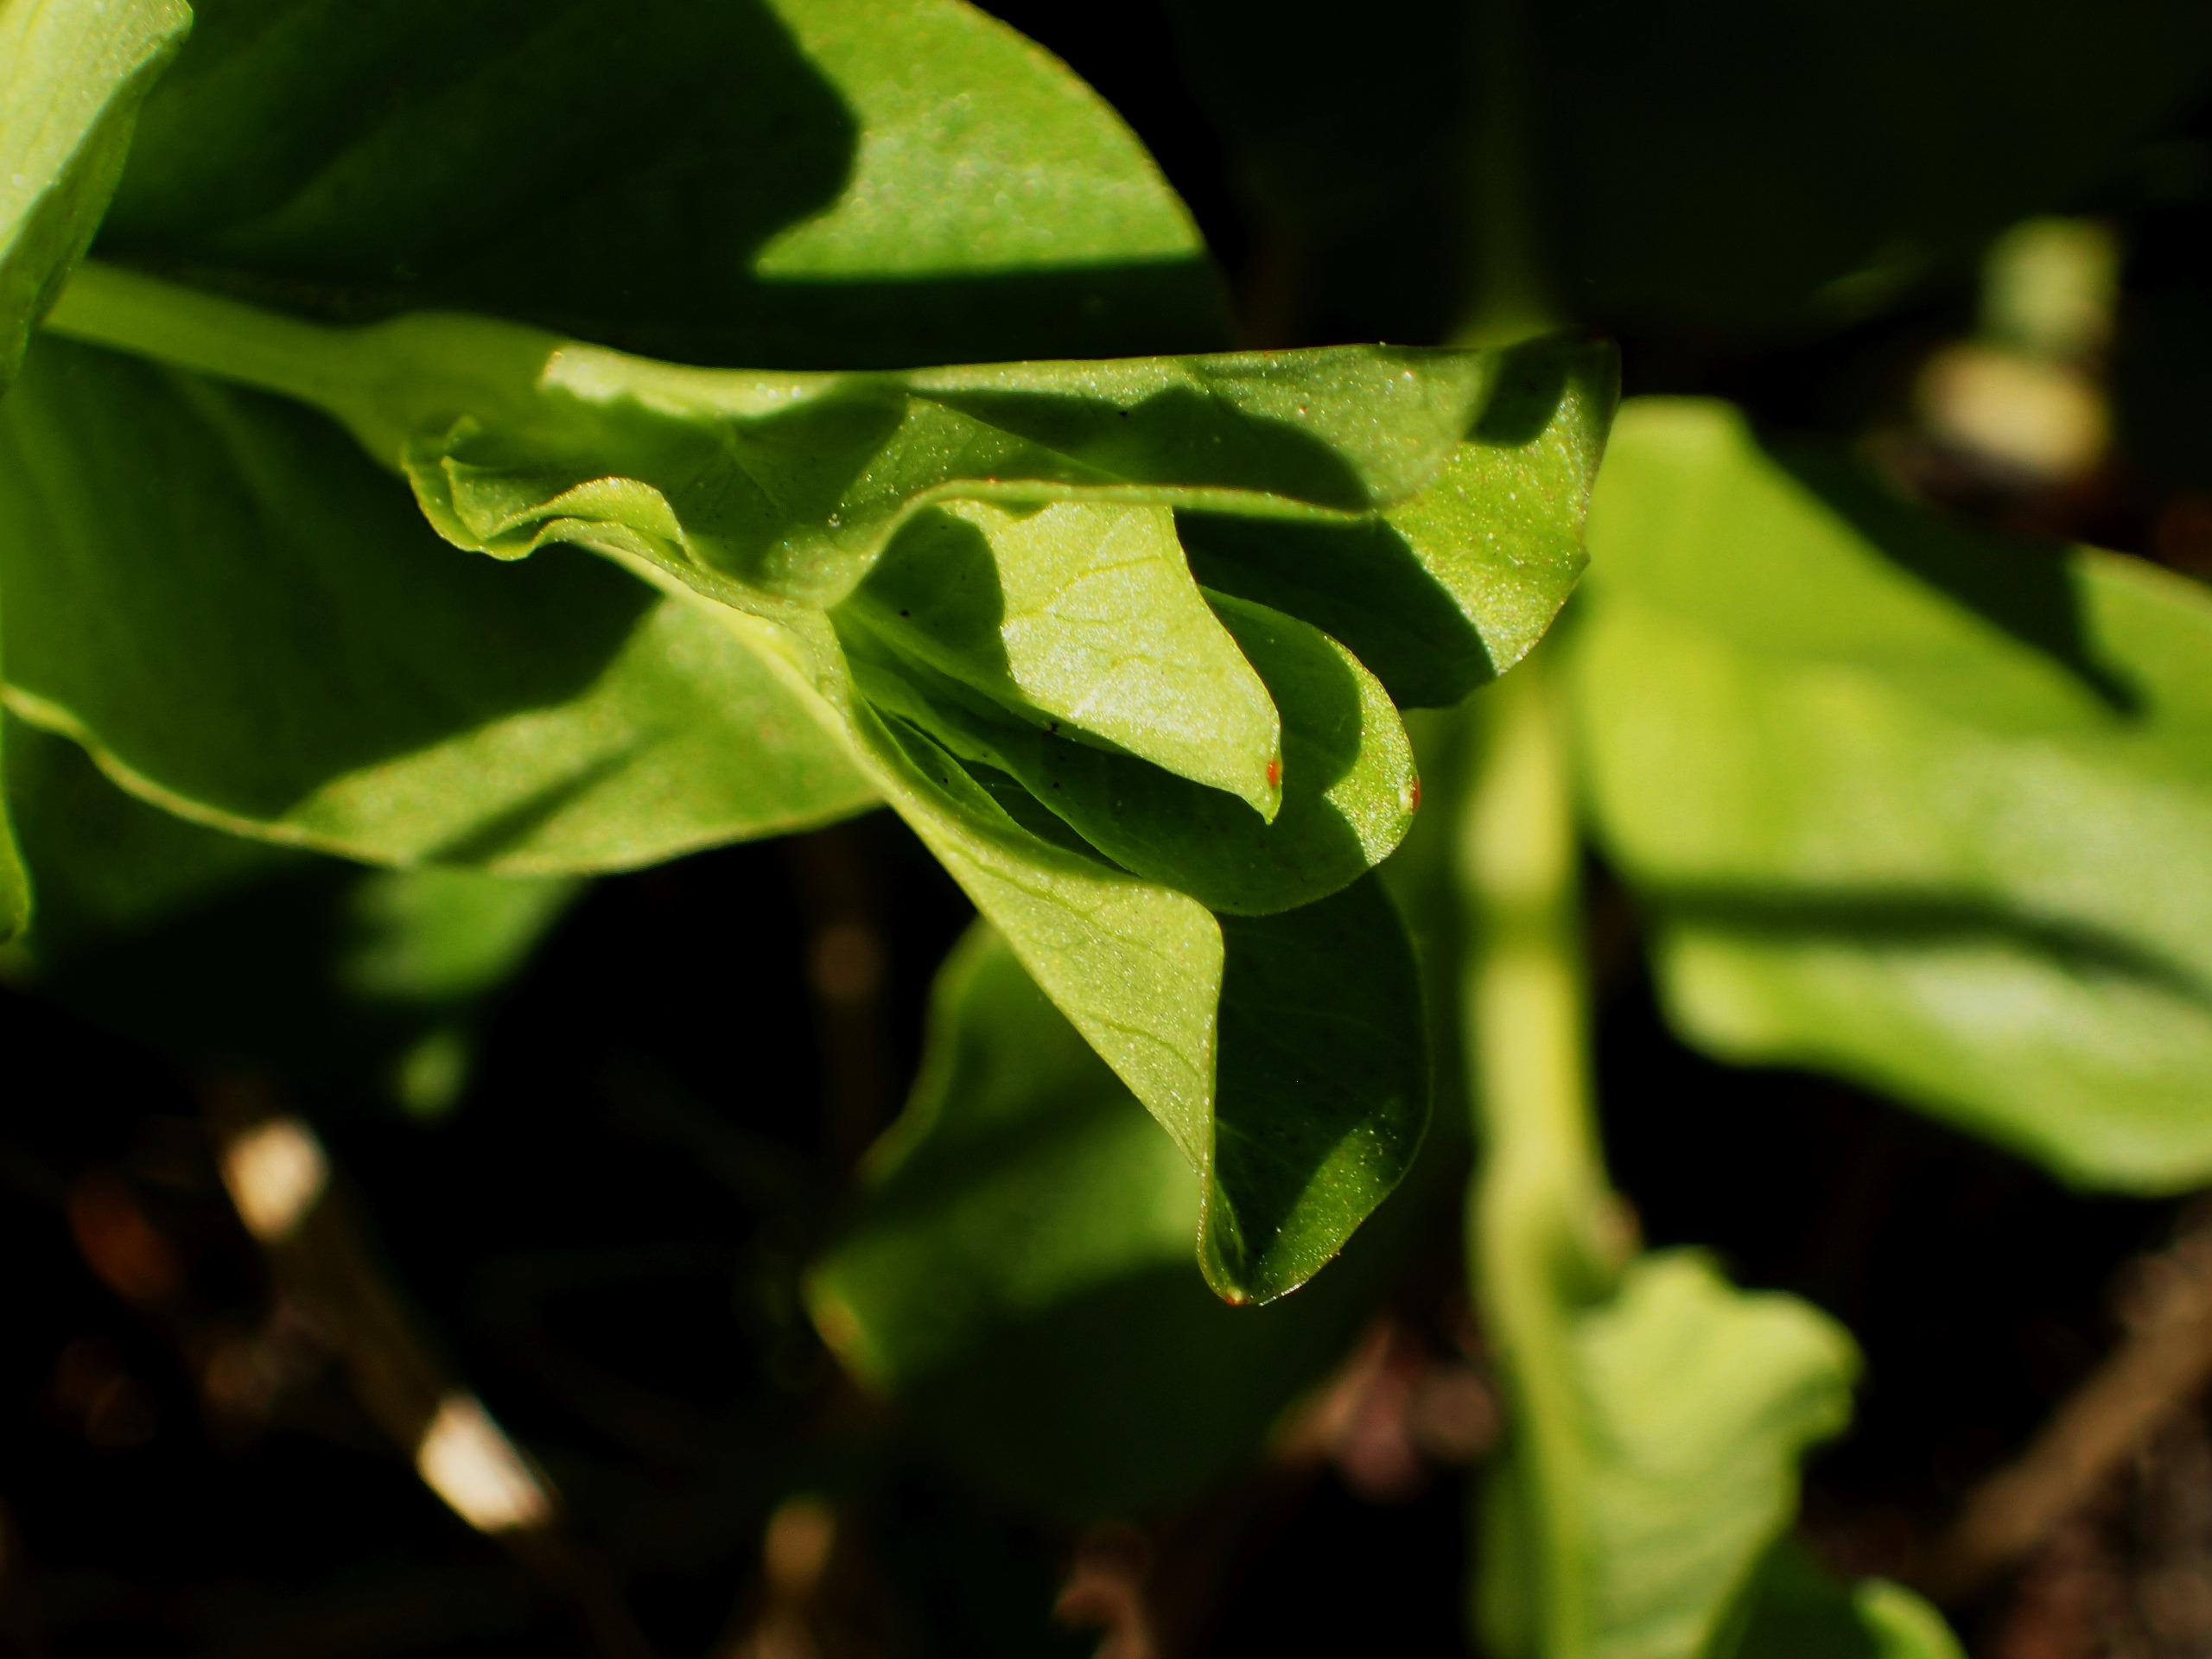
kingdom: Plantae
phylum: Tracheophyta
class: Magnoliopsida
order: Ericales
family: Primulaceae
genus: Lysimachia
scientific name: Lysimachia nummularia
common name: Pengebladet fredløs
